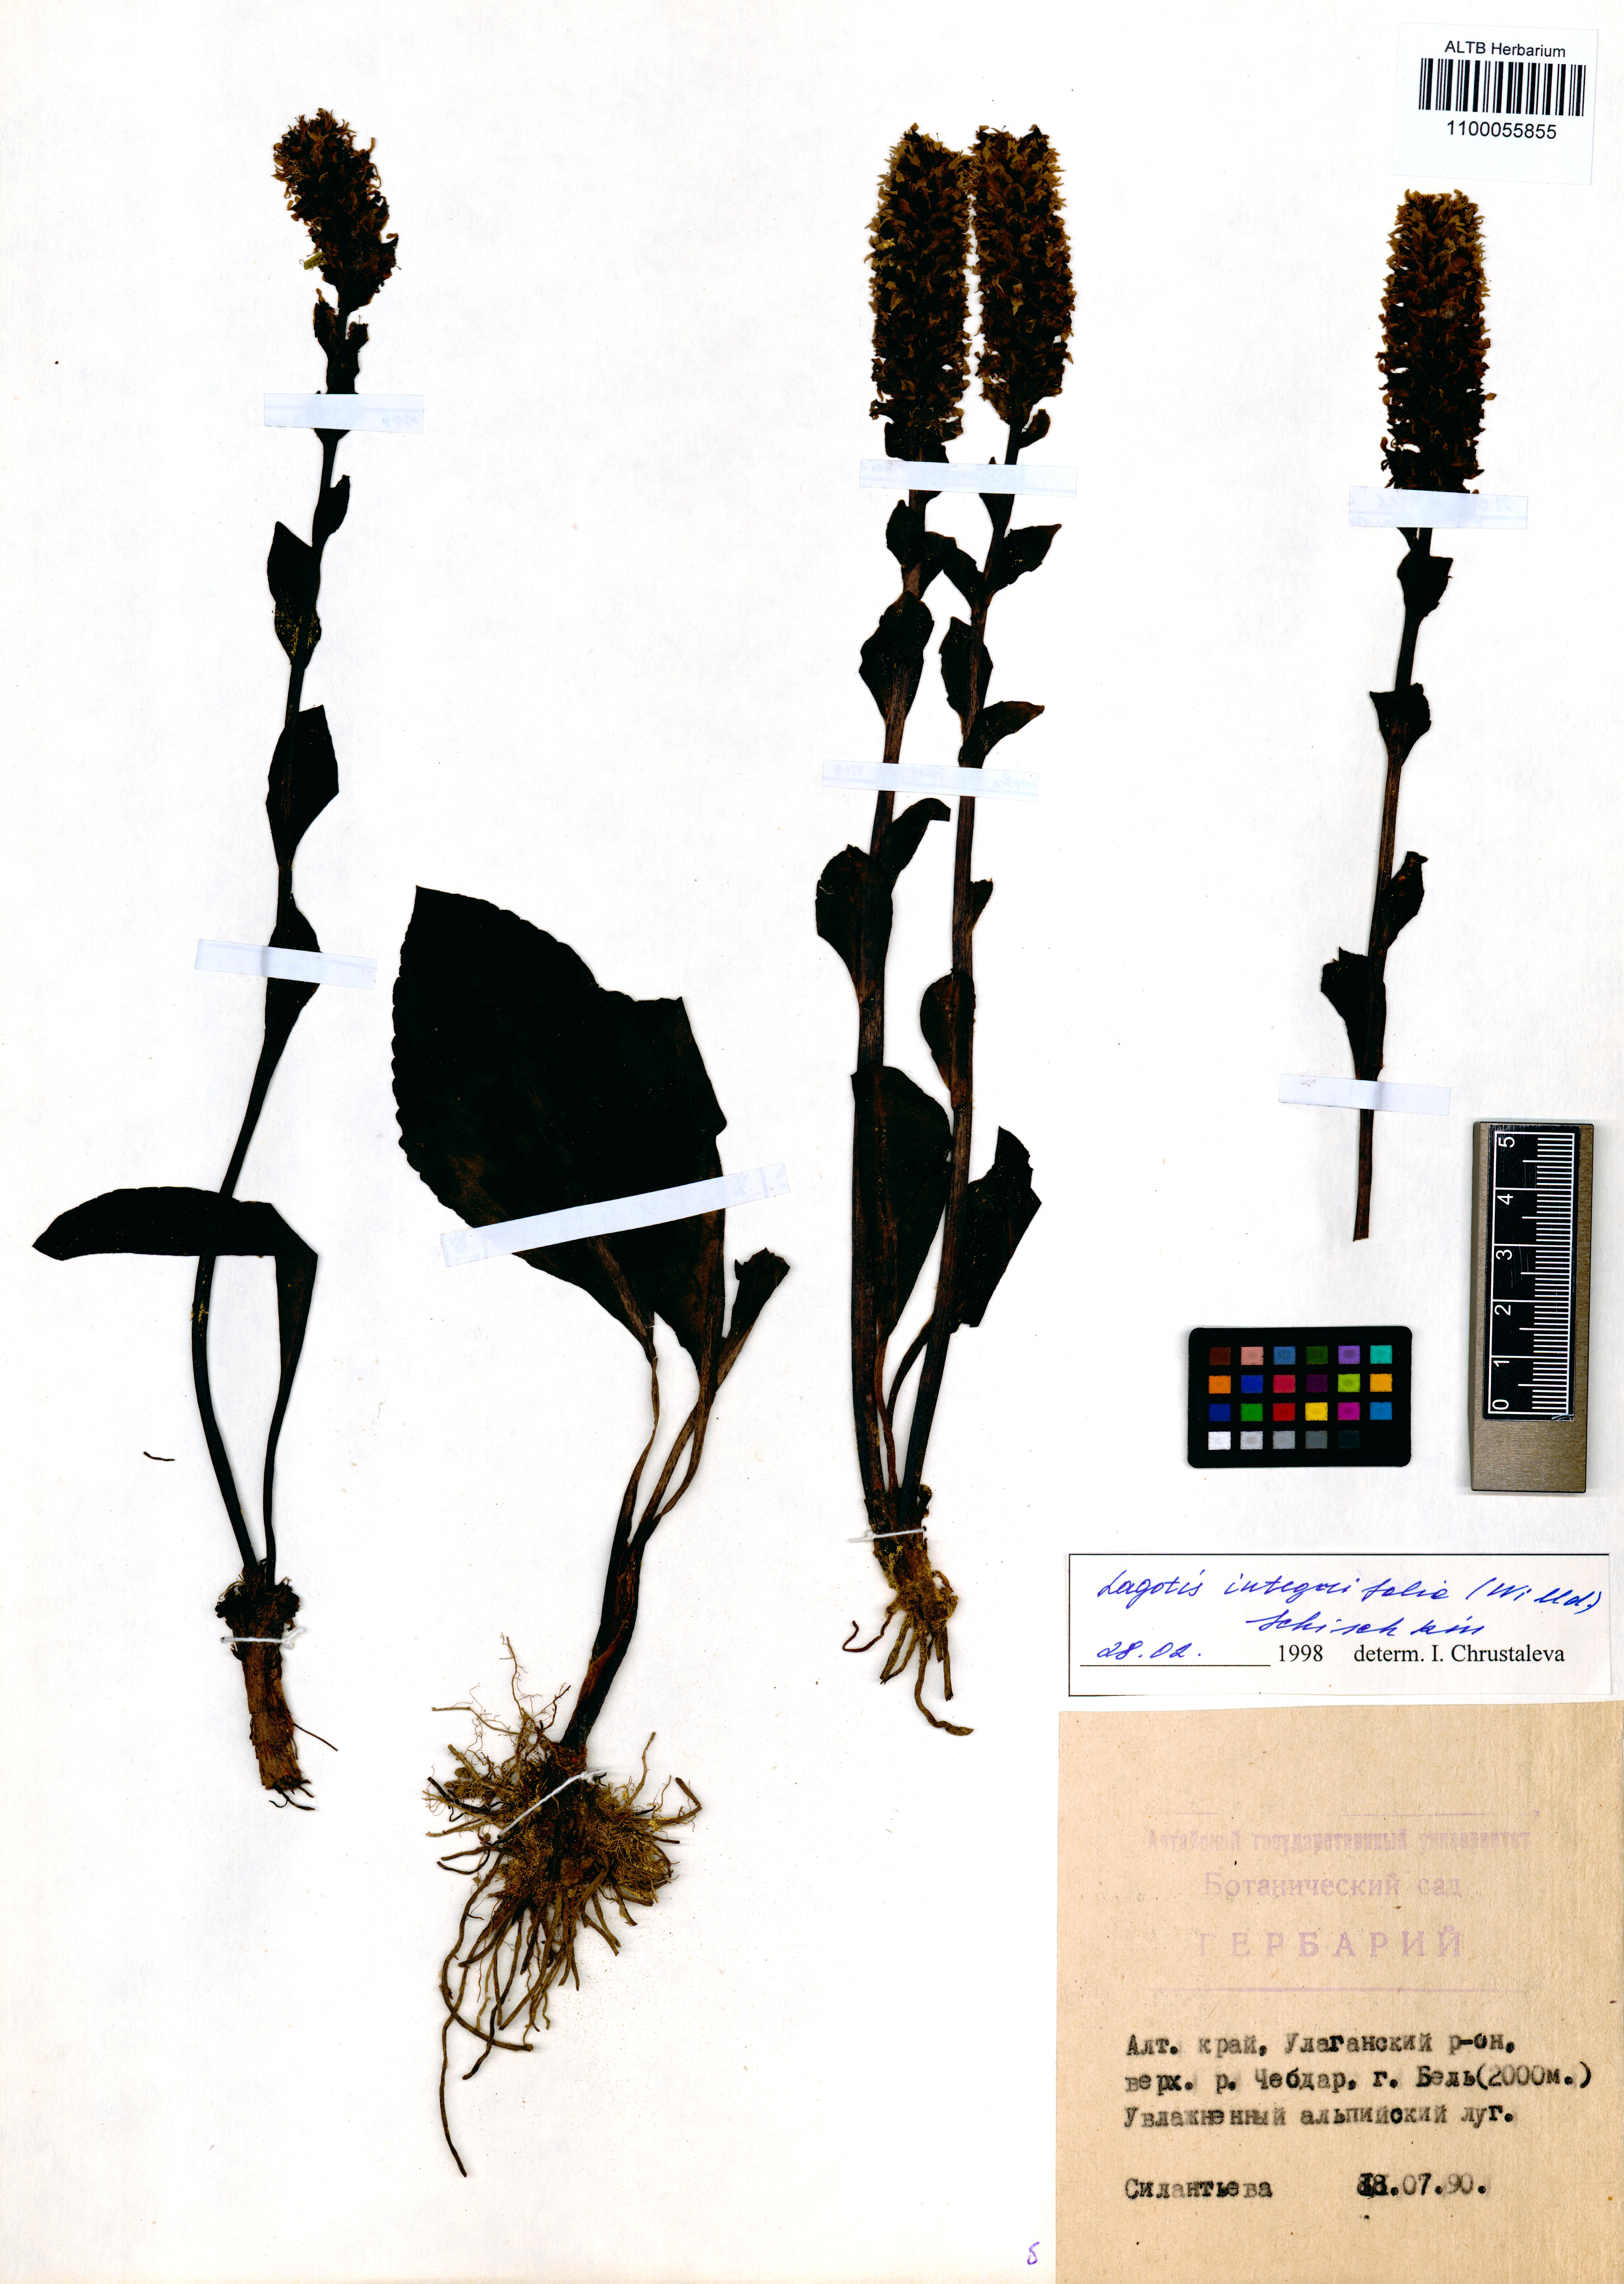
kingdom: Plantae
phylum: Tracheophyta
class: Magnoliopsida
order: Lamiales
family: Plantaginaceae
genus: Lagotis
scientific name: Lagotis integrifolia
